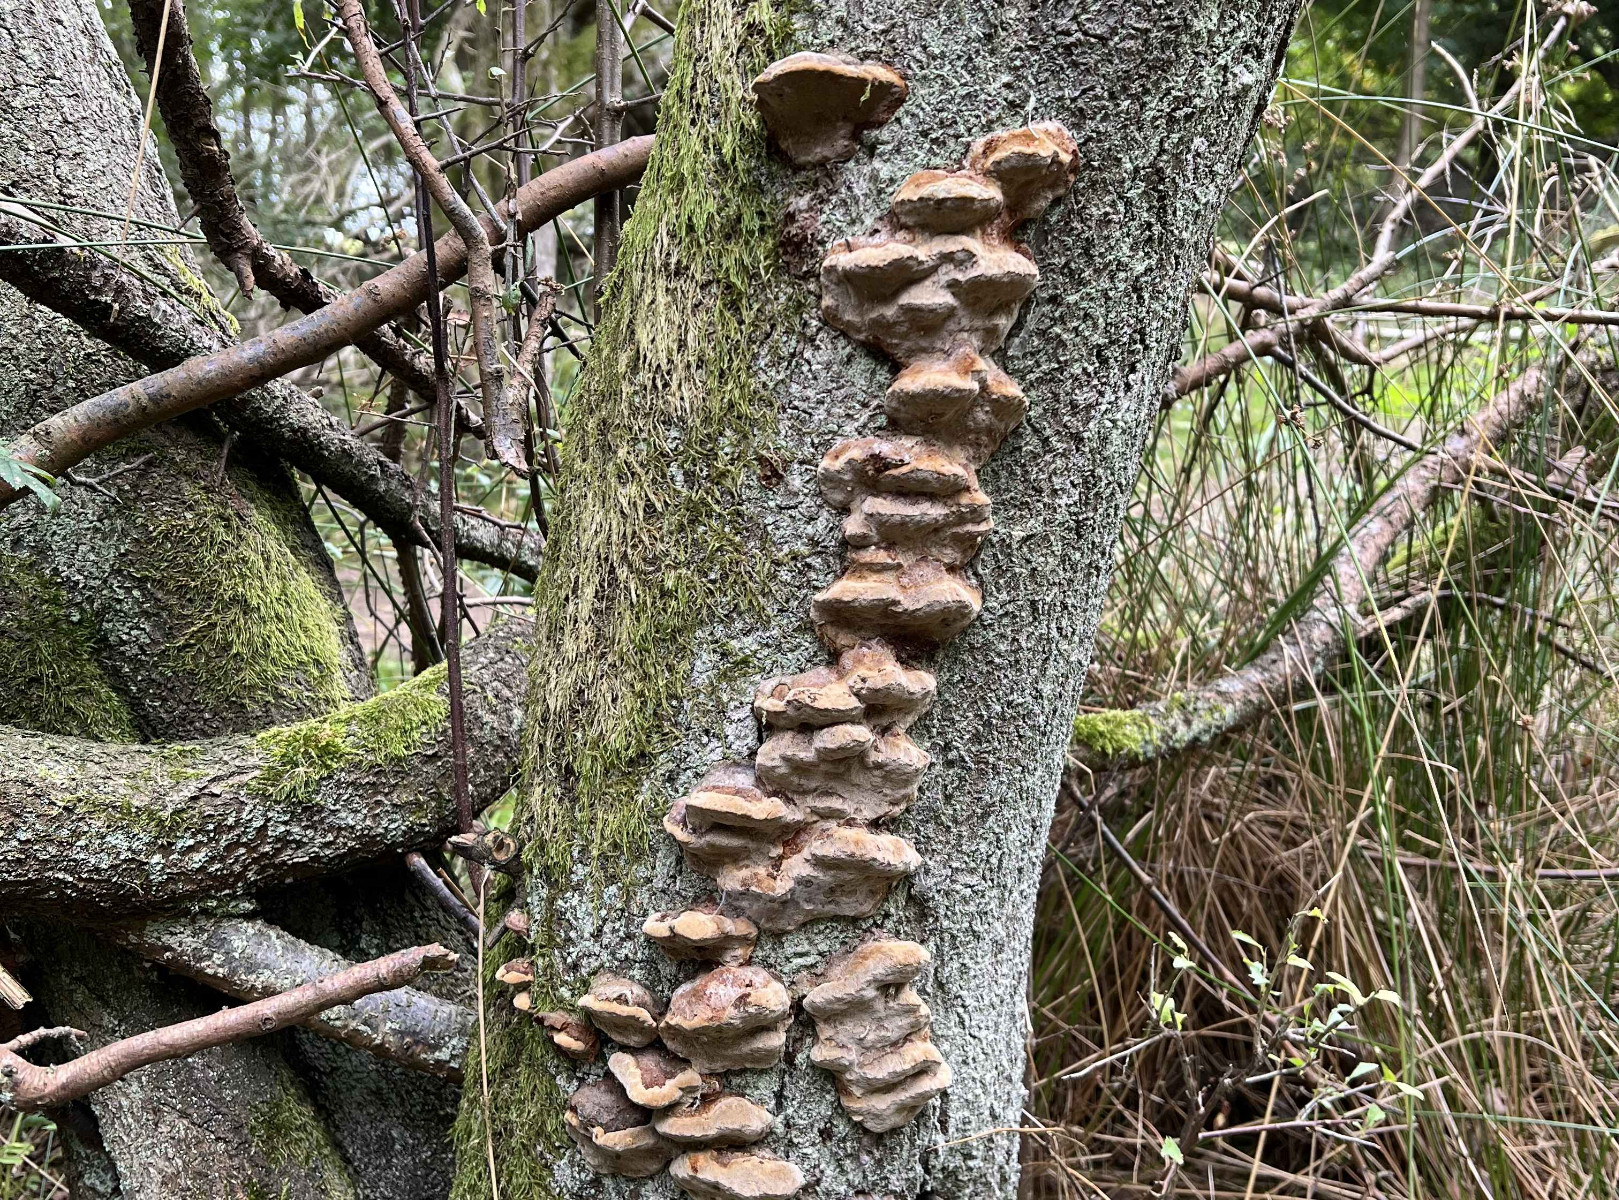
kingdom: Fungi
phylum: Basidiomycota
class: Agaricomycetes
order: Hymenochaetales
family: Hymenochaetaceae
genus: Phellinus
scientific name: Phellinus pomaceus
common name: blomme-ildporesvamp
